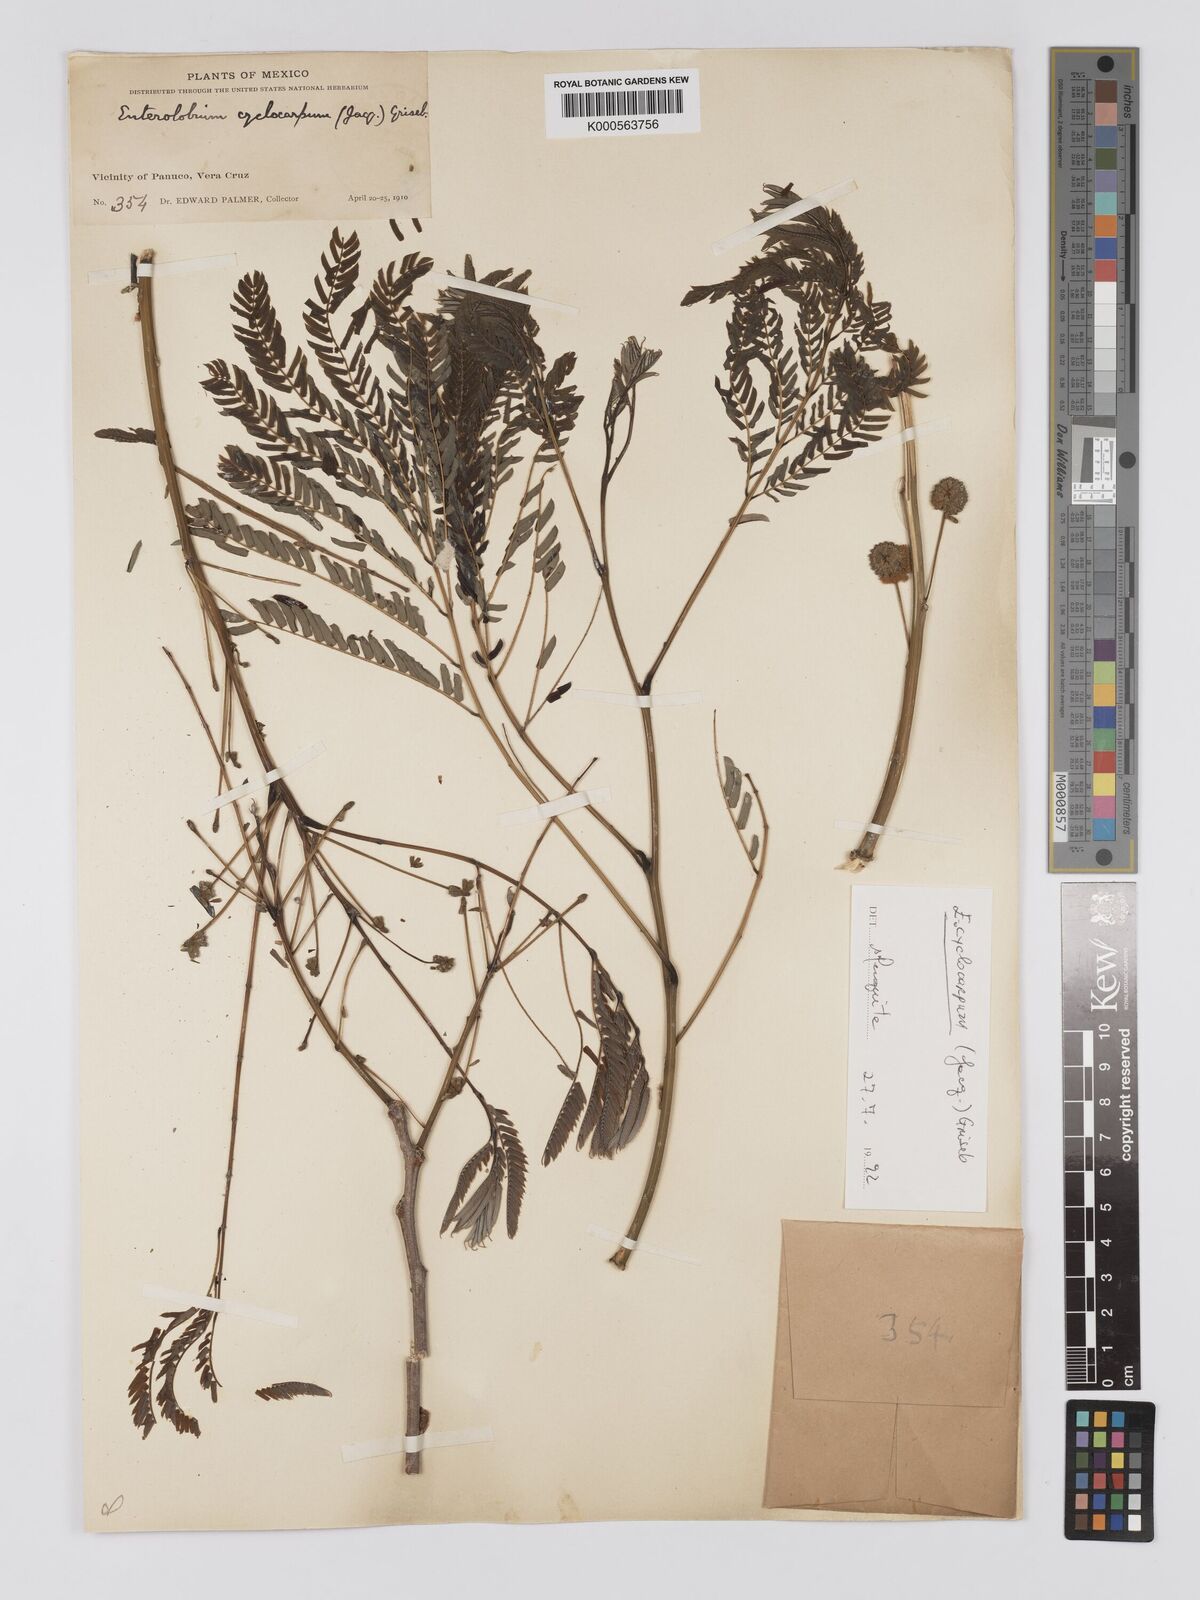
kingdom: Plantae
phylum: Tracheophyta
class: Magnoliopsida
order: Fabales
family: Fabaceae
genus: Enterolobium
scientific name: Enterolobium cyclocarpum
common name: Ear tree
